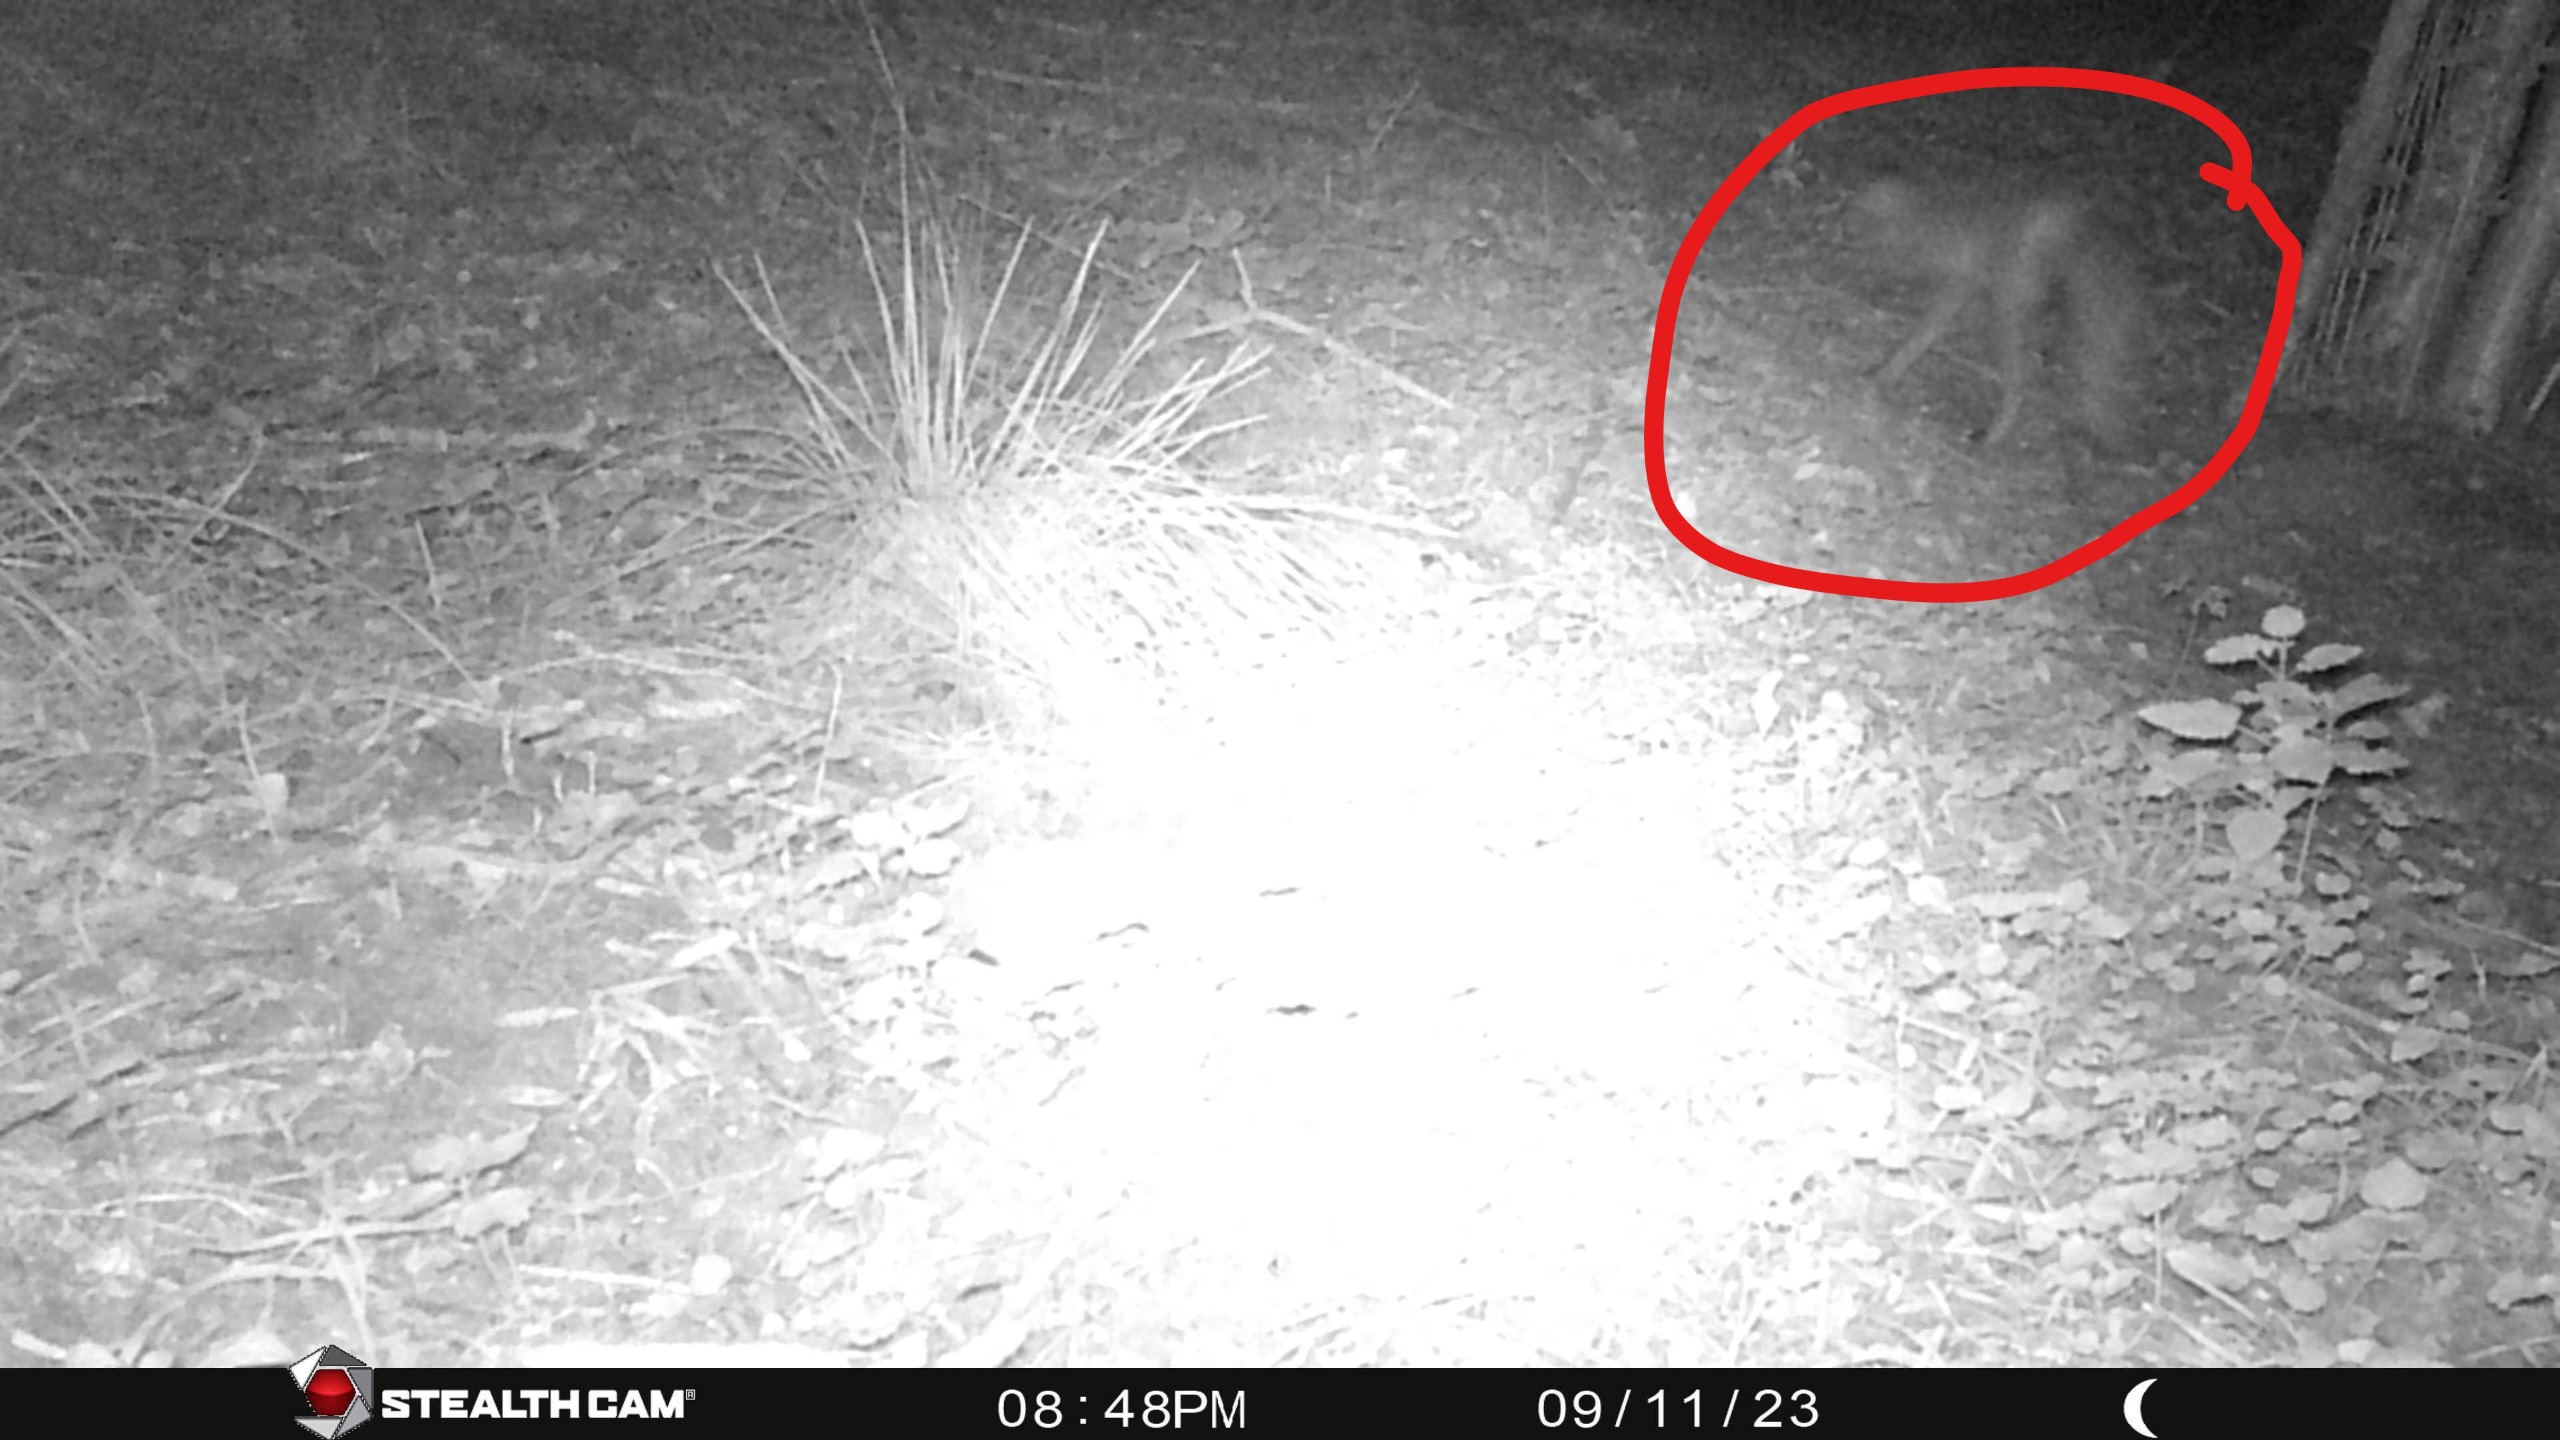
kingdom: Animalia
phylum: Chordata
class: Mammalia
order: Carnivora
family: Canidae
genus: Vulpes
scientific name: Vulpes vulpes
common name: Ræv
